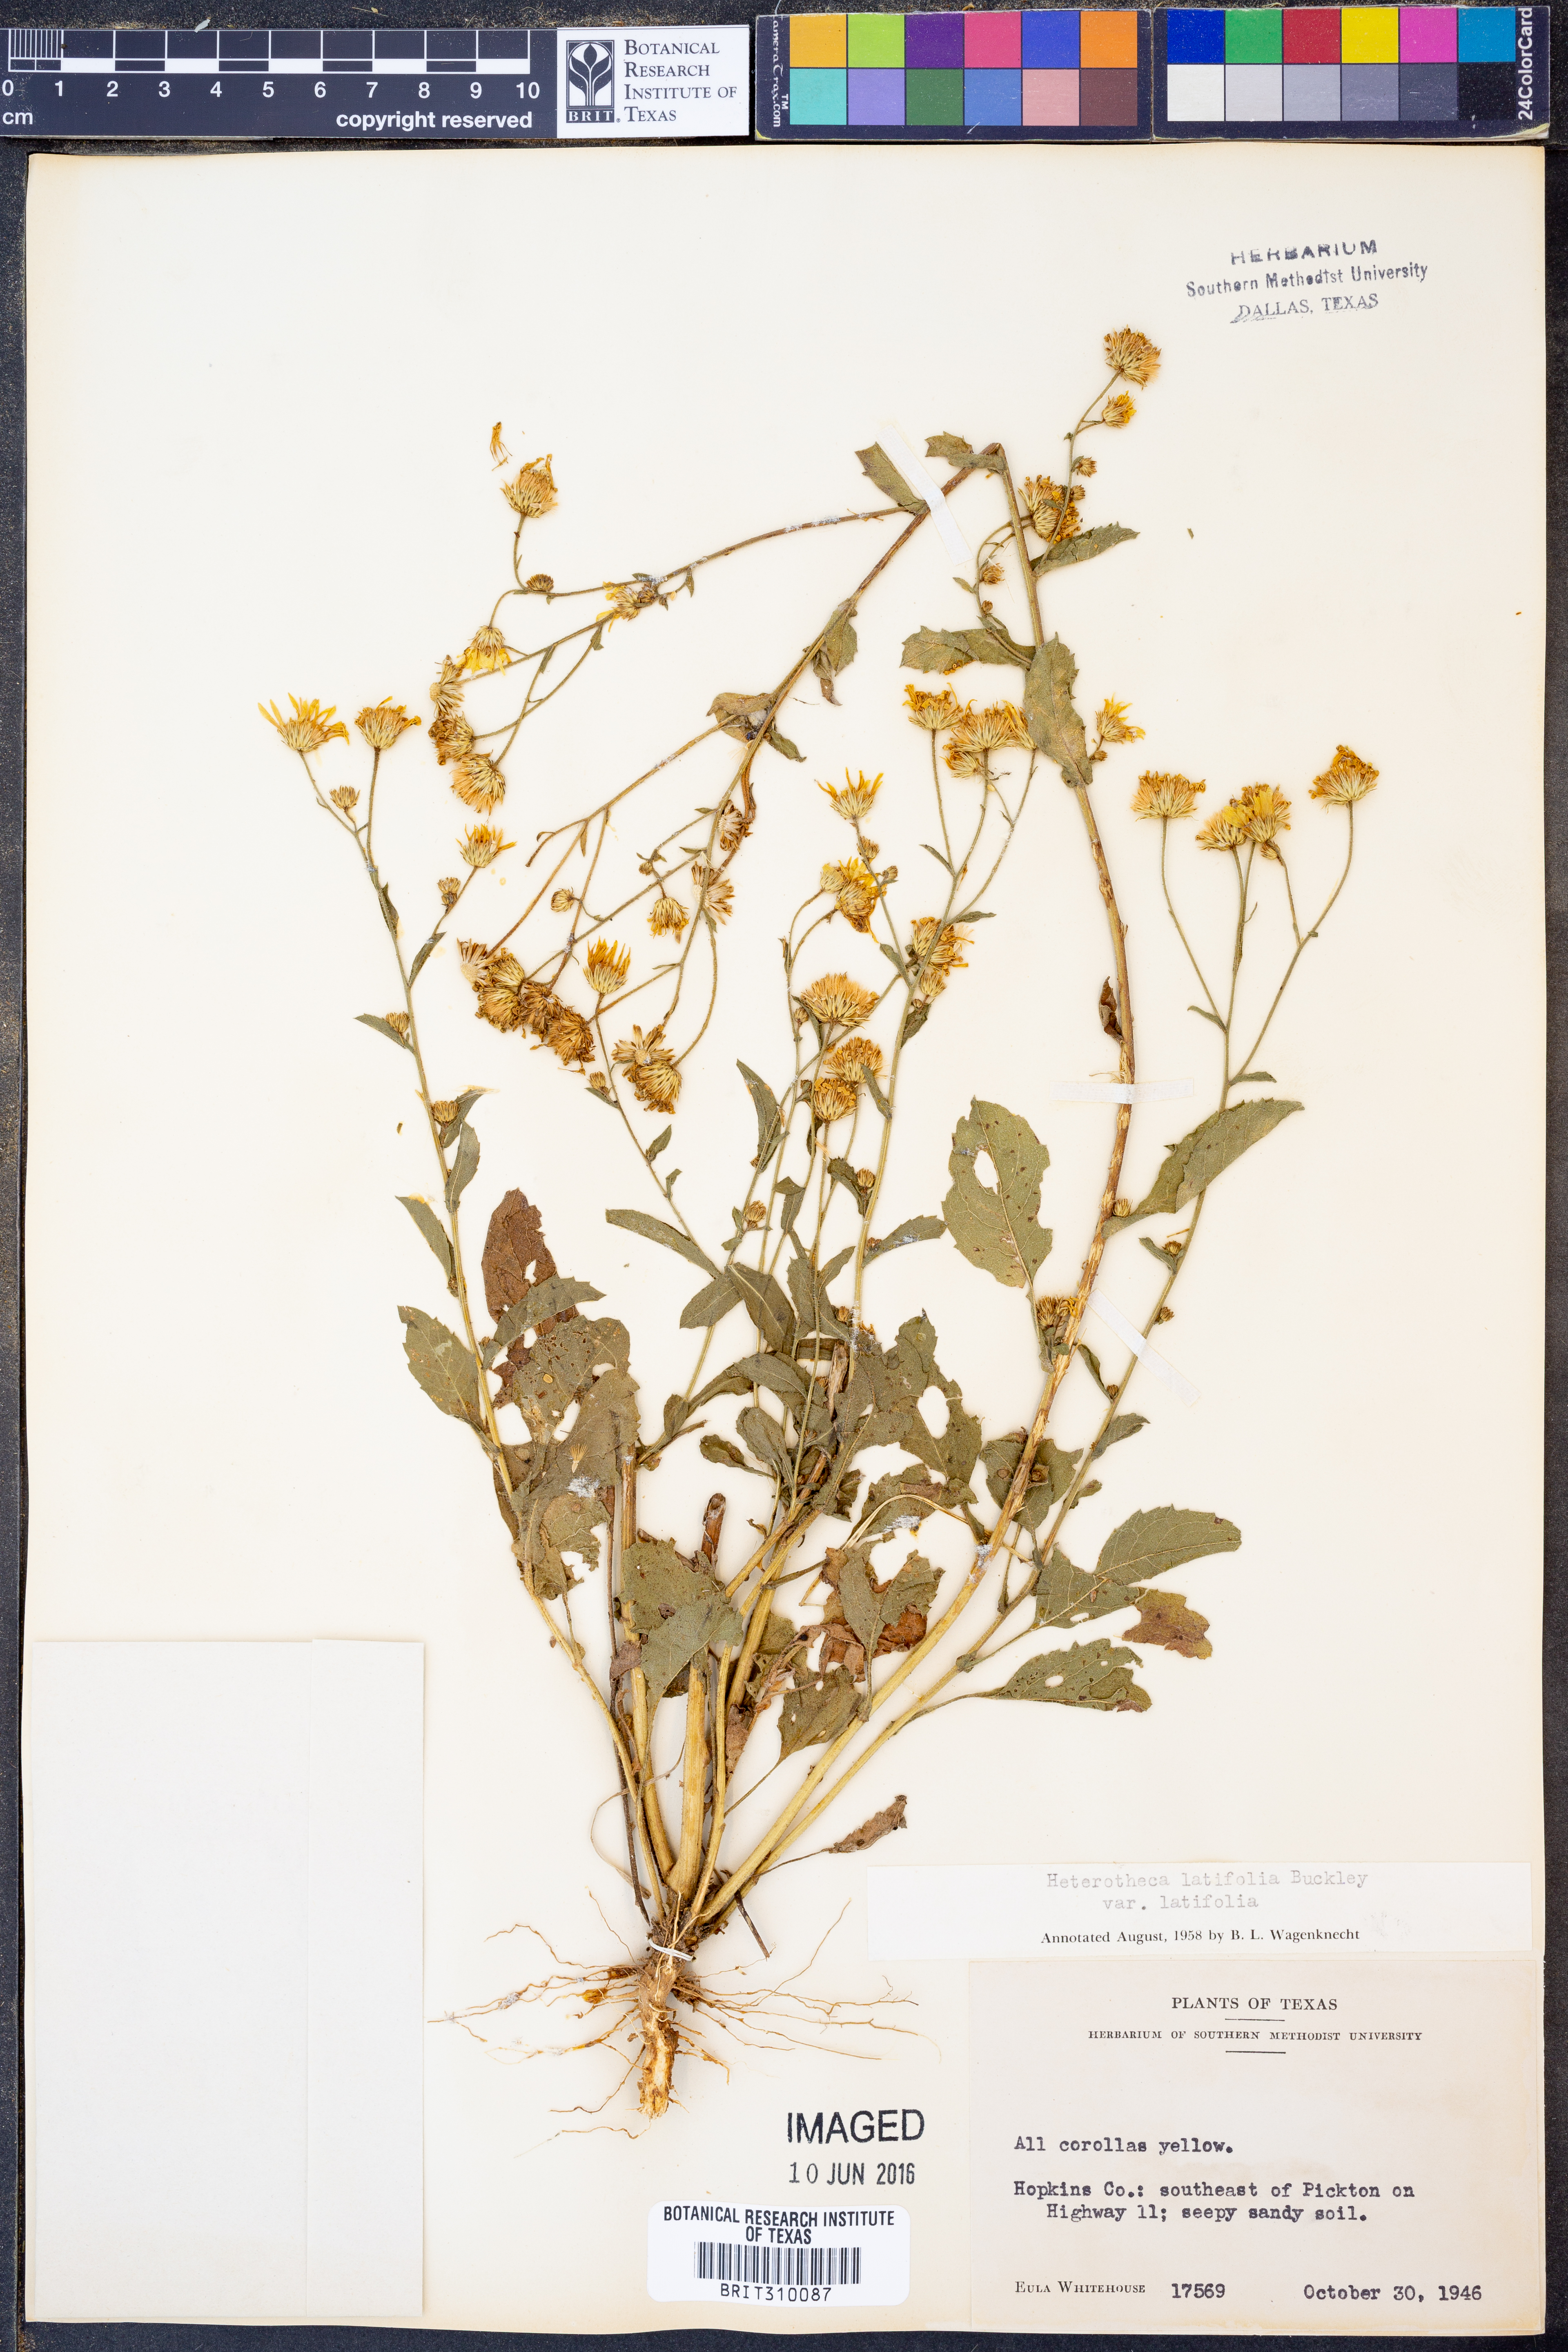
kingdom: Plantae
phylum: Tracheophyta
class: Magnoliopsida
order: Asterales
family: Asteraceae
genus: Heterotheca
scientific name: Heterotheca subaxillaris
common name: Camphorweed
